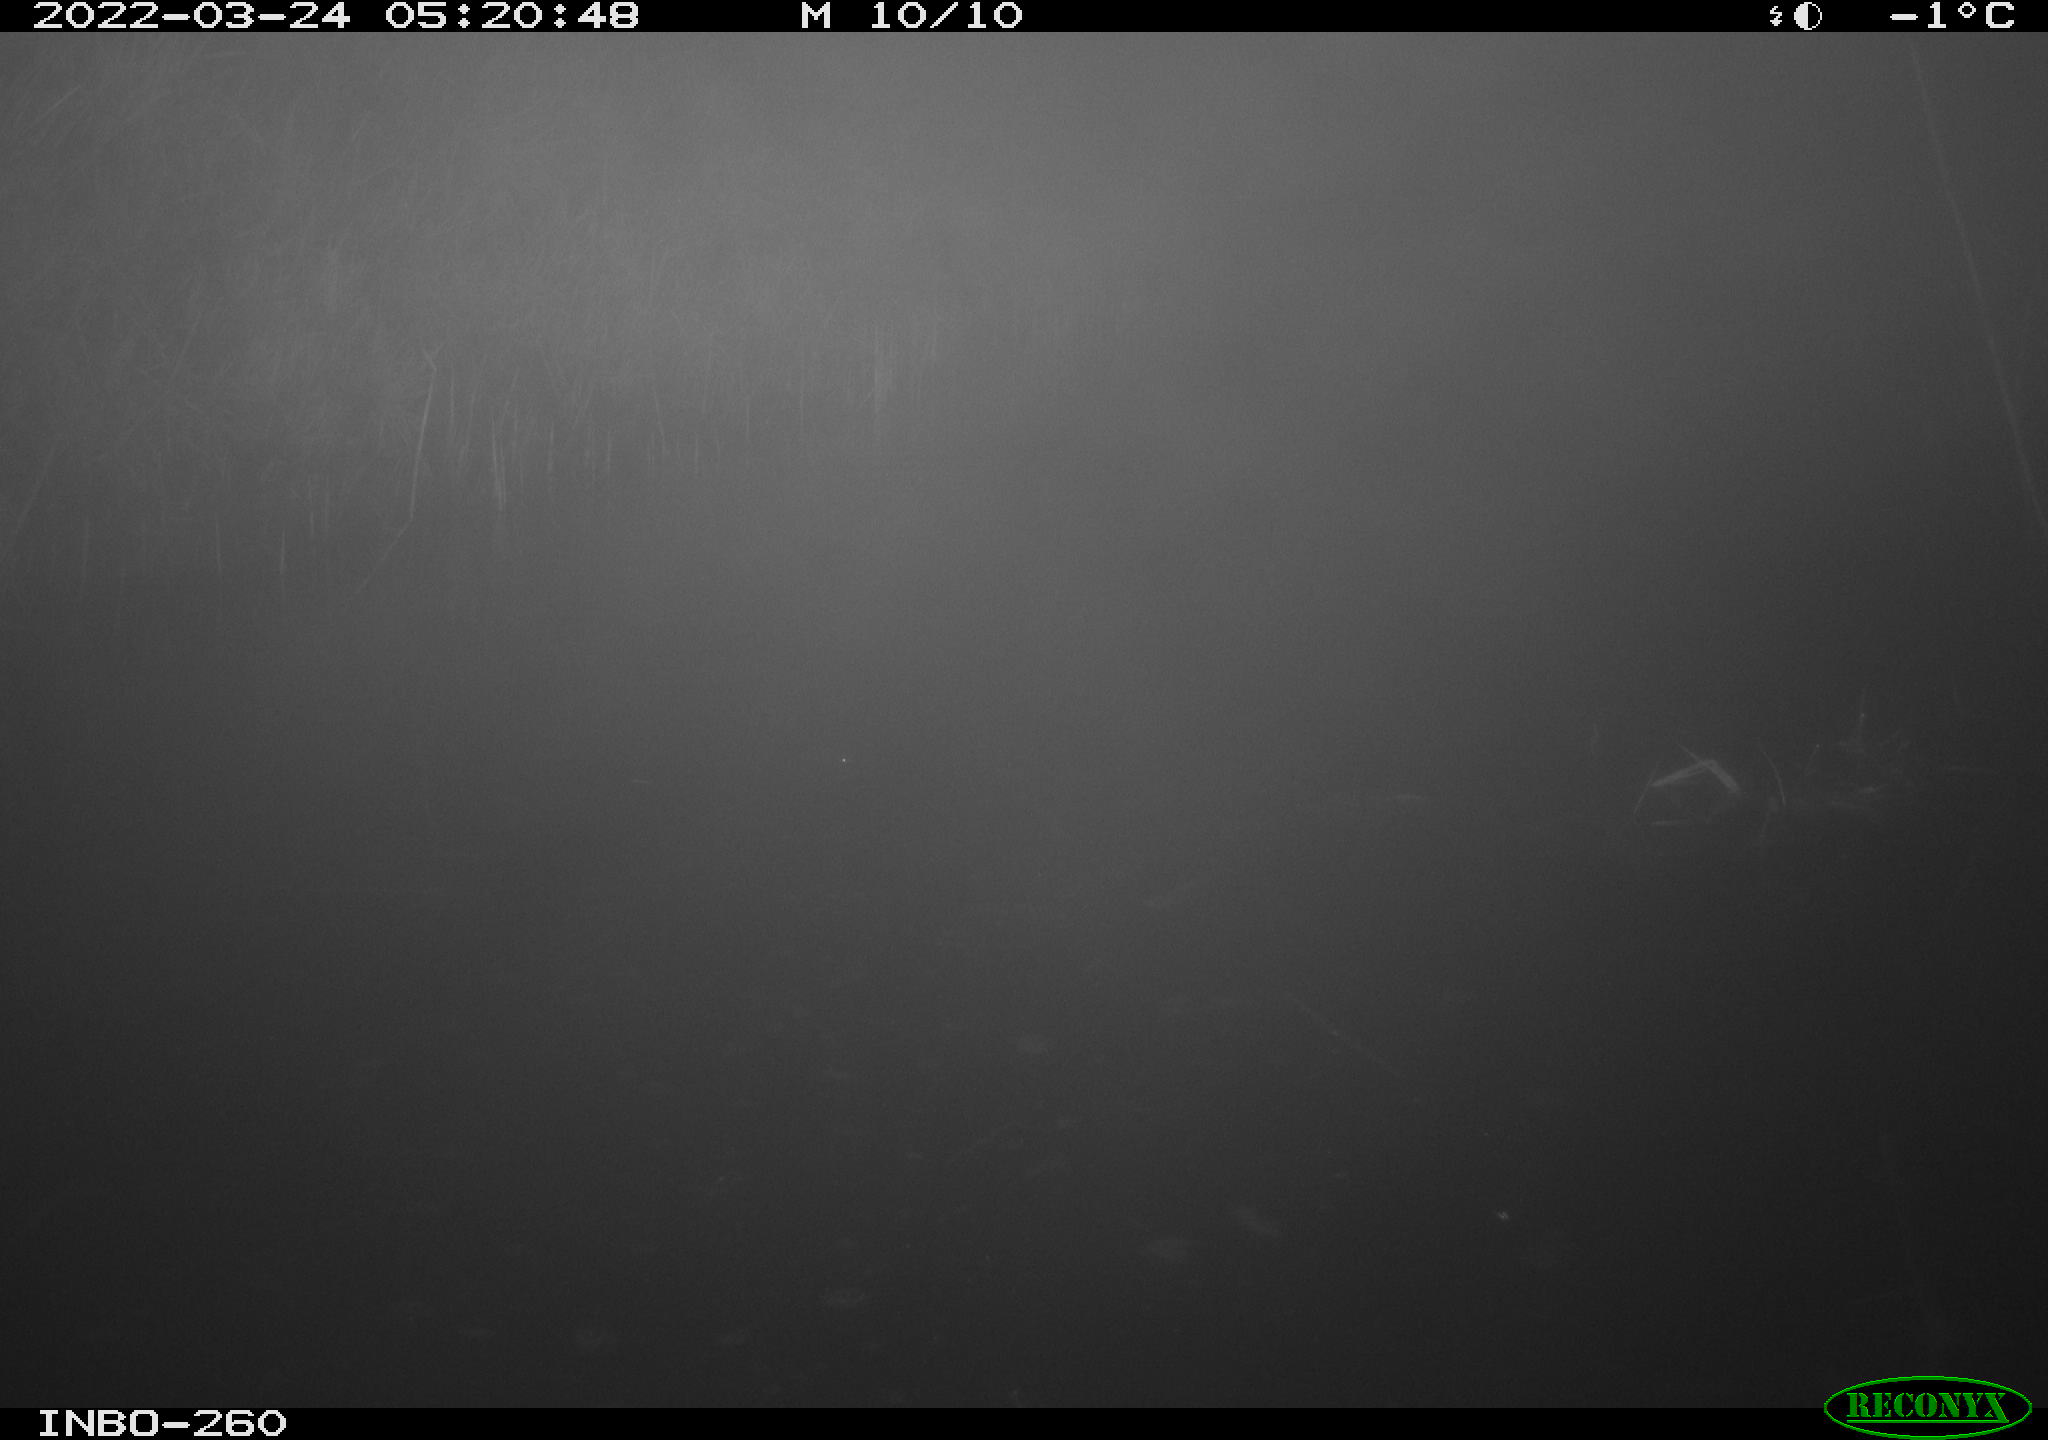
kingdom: Animalia
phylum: Chordata
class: Mammalia
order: Rodentia
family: Cricetidae
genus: Ondatra
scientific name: Ondatra zibethicus
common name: Muskrat
